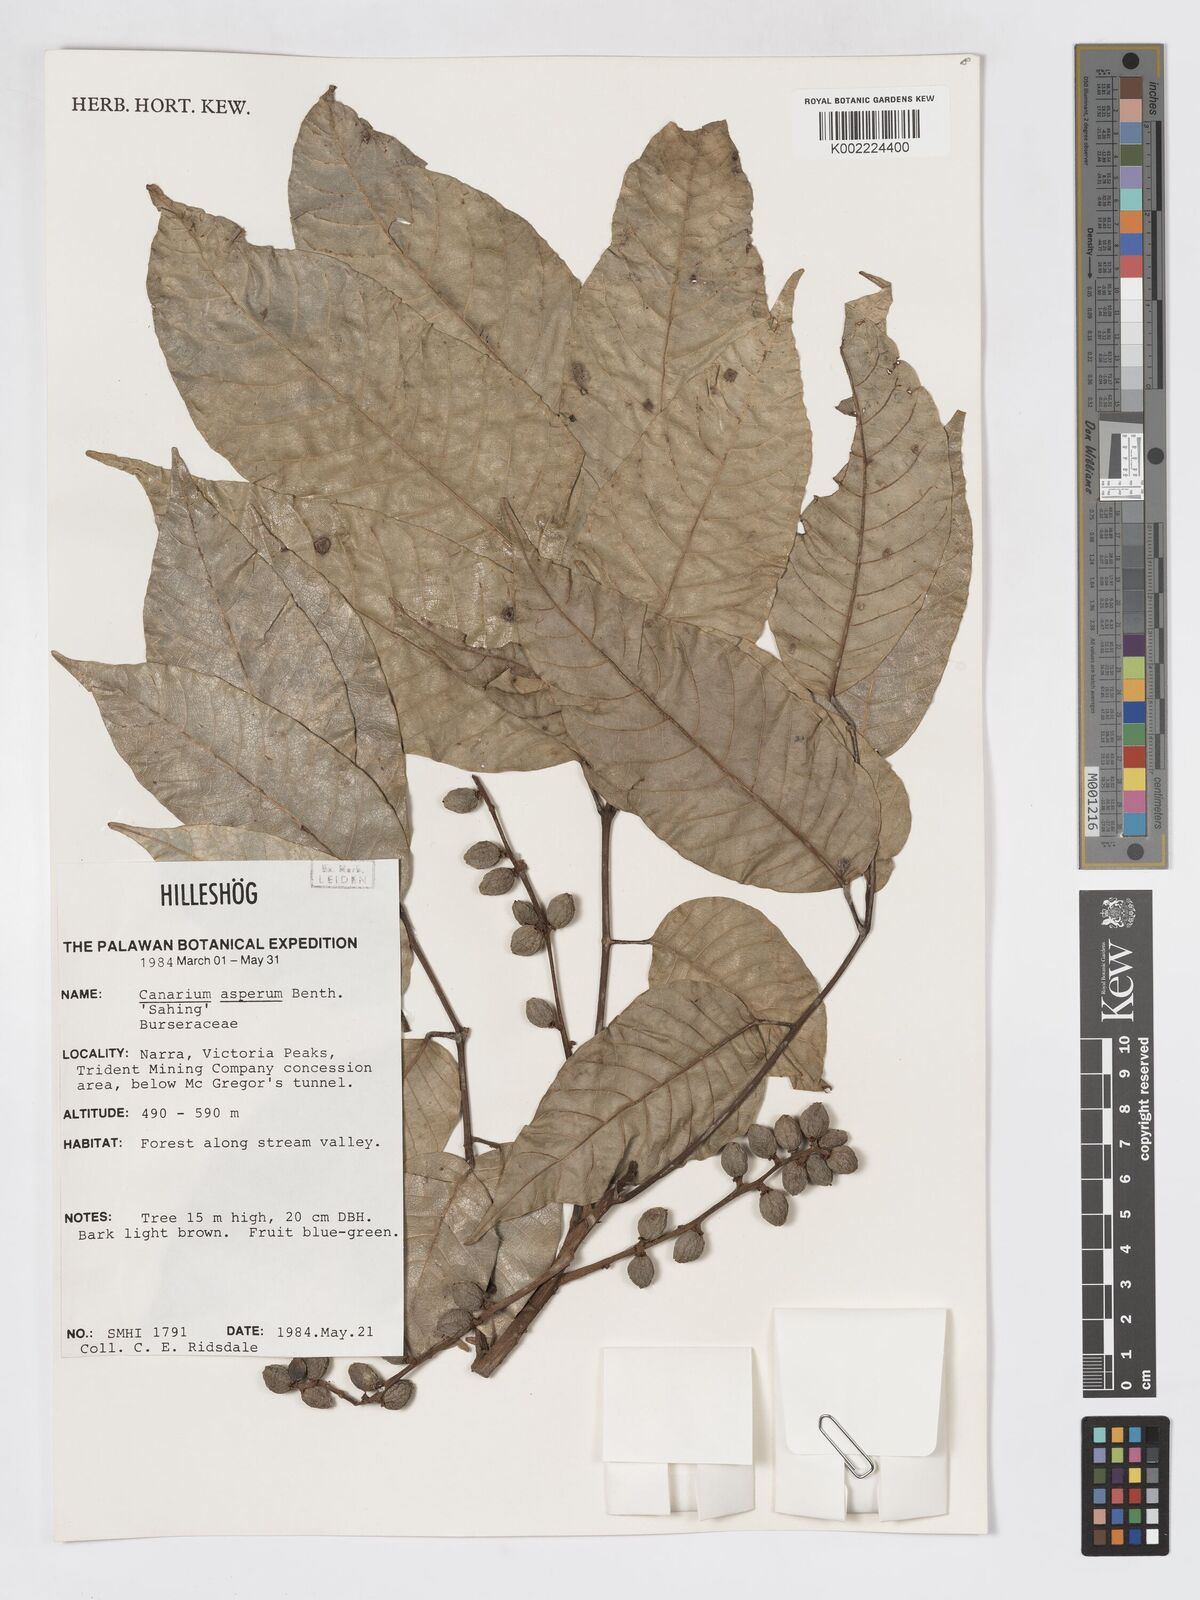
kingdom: Plantae
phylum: Tracheophyta
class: Magnoliopsida
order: Sapindales
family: Burseraceae
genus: Canarium
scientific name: Canarium asperum
